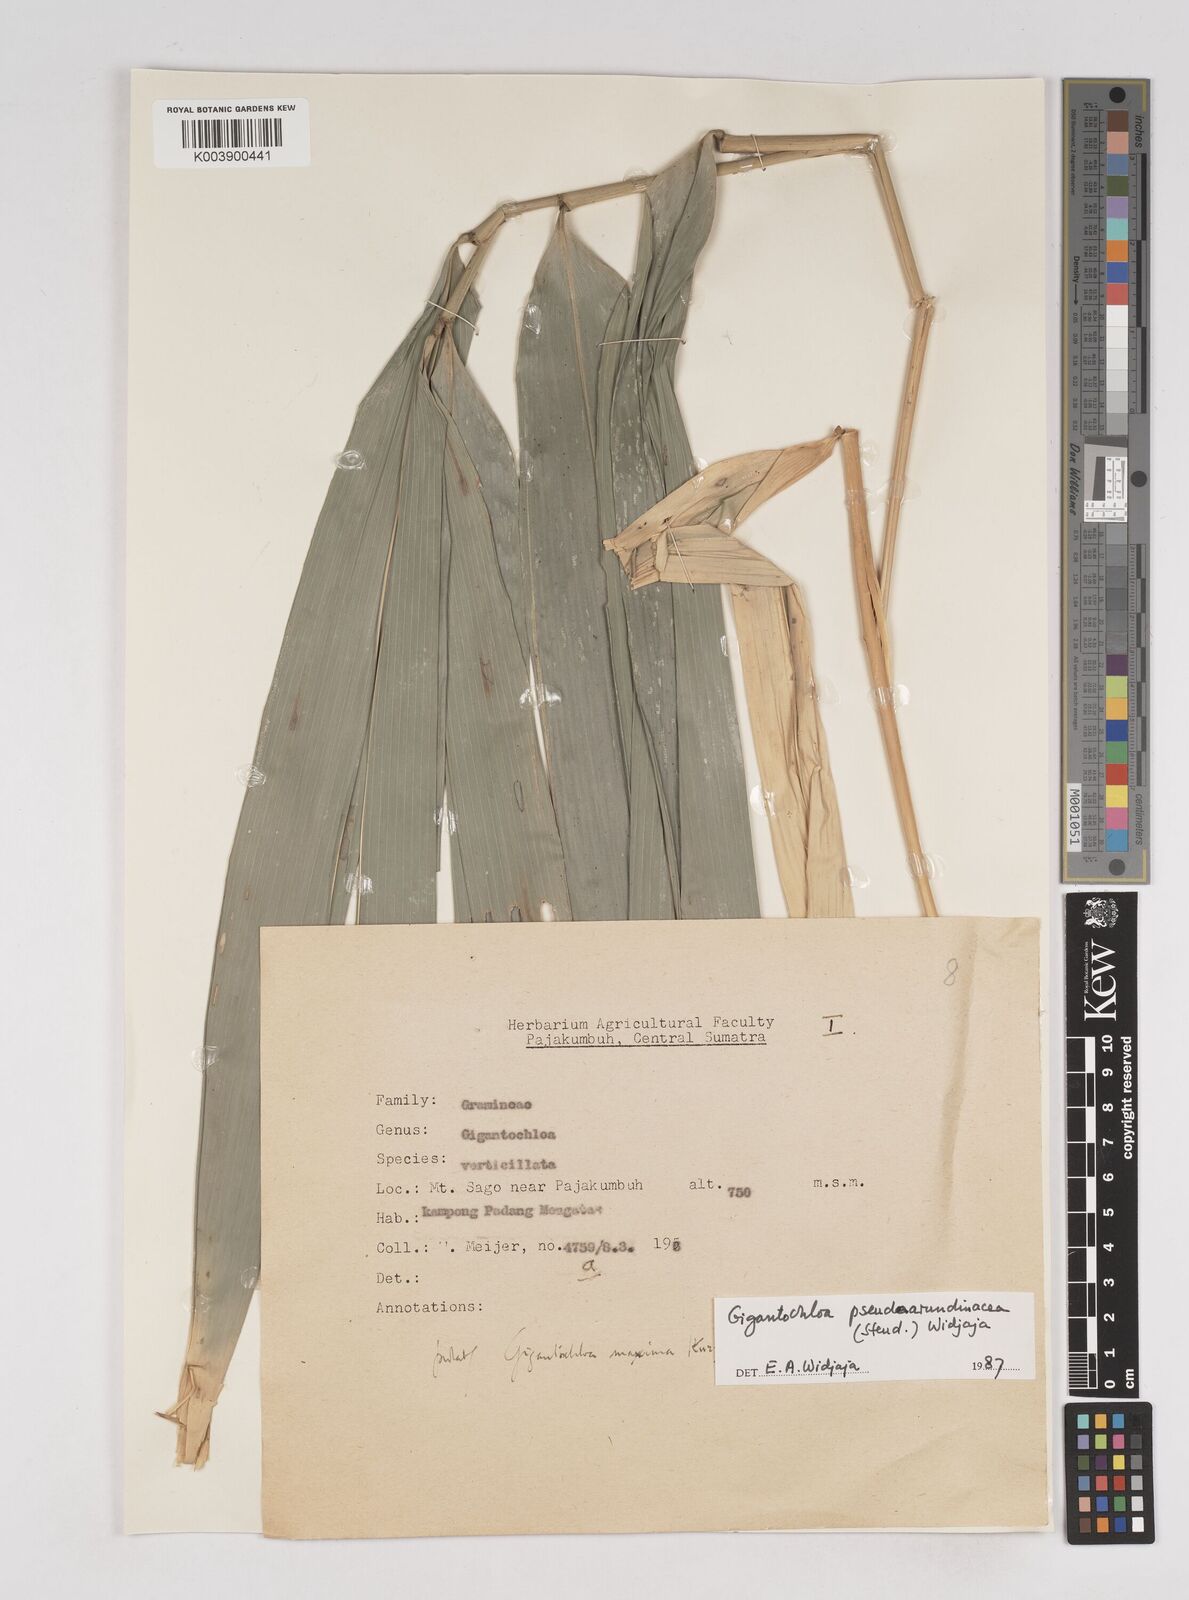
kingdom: Plantae
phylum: Tracheophyta
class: Liliopsida
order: Poales
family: Poaceae
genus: Gigantochloa
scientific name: Gigantochloa verticillata
